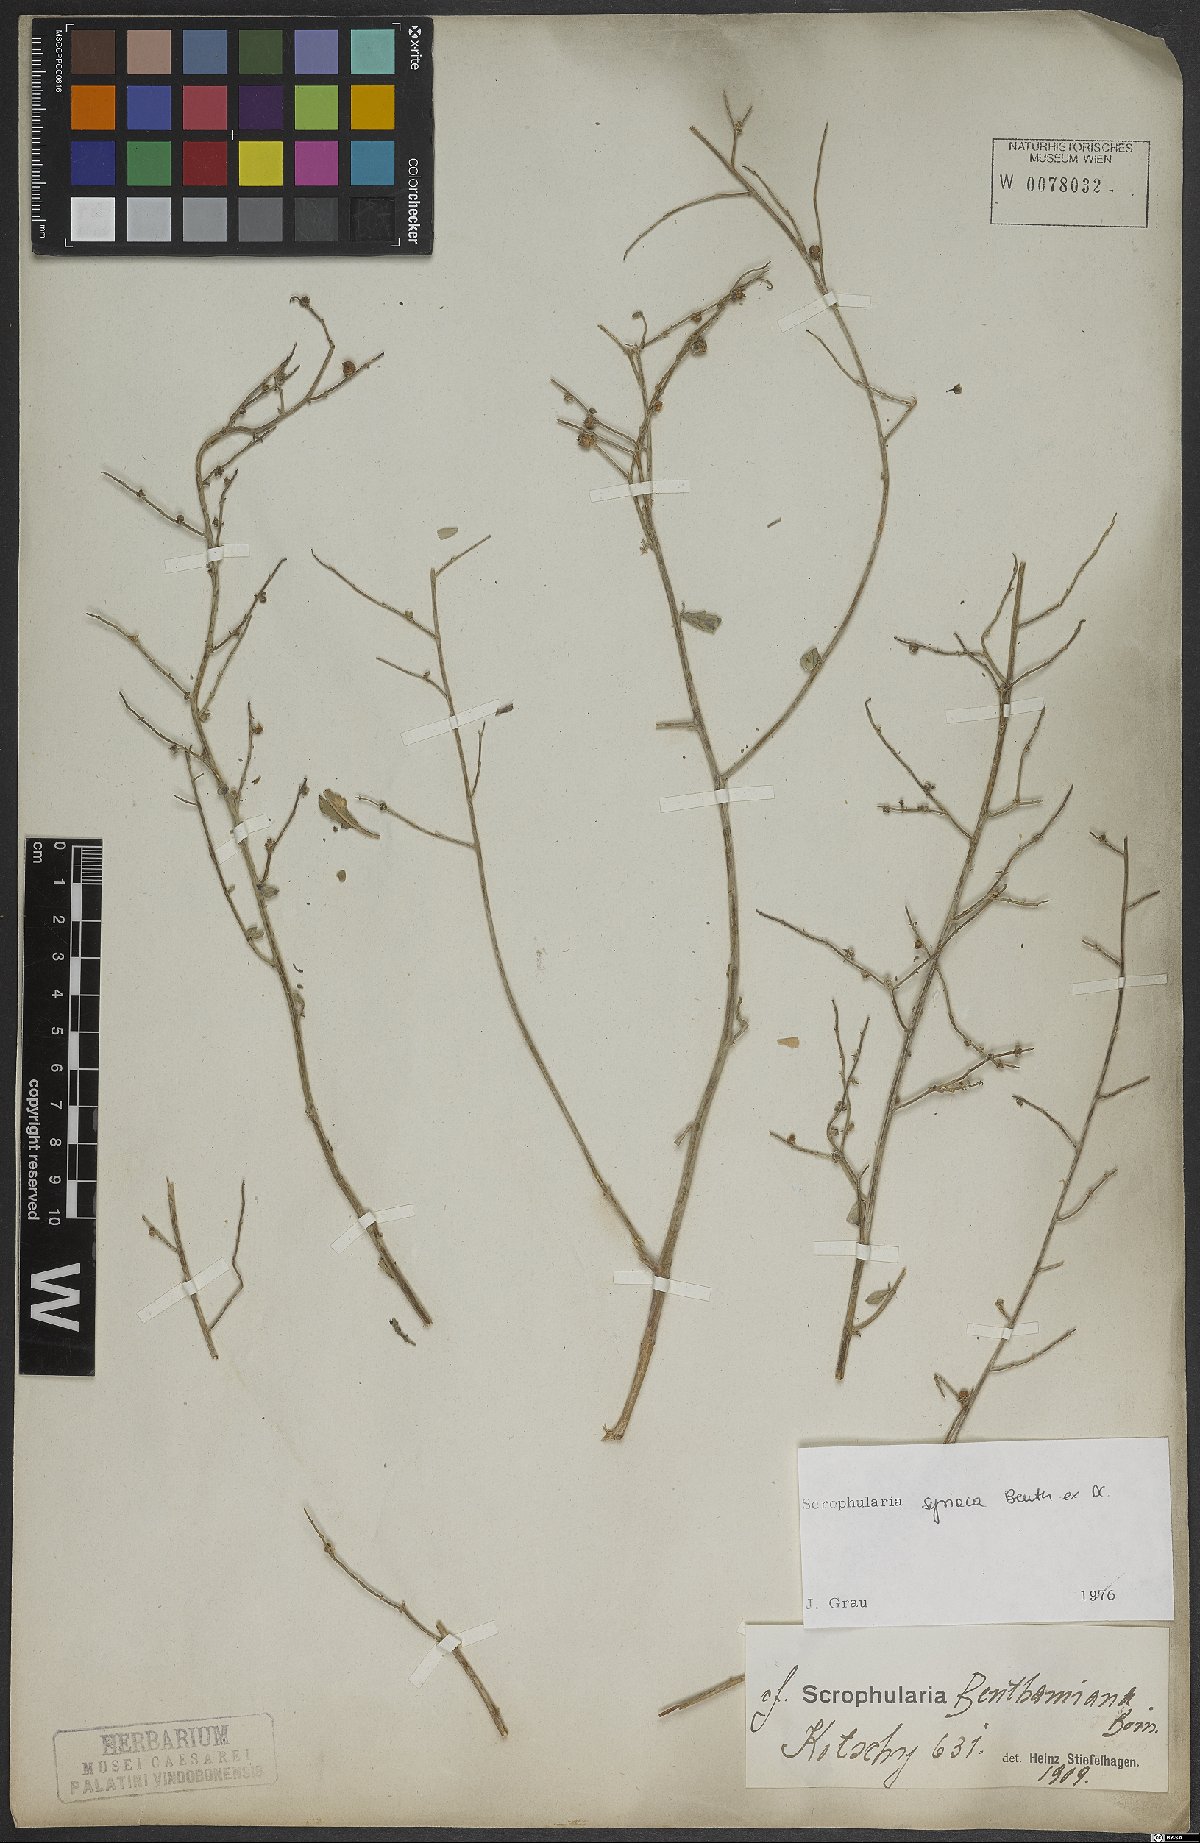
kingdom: Plantae
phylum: Tracheophyta
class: Magnoliopsida
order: Lamiales
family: Scrophulariaceae
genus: Scrophularia
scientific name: Scrophularia hypericifolia
